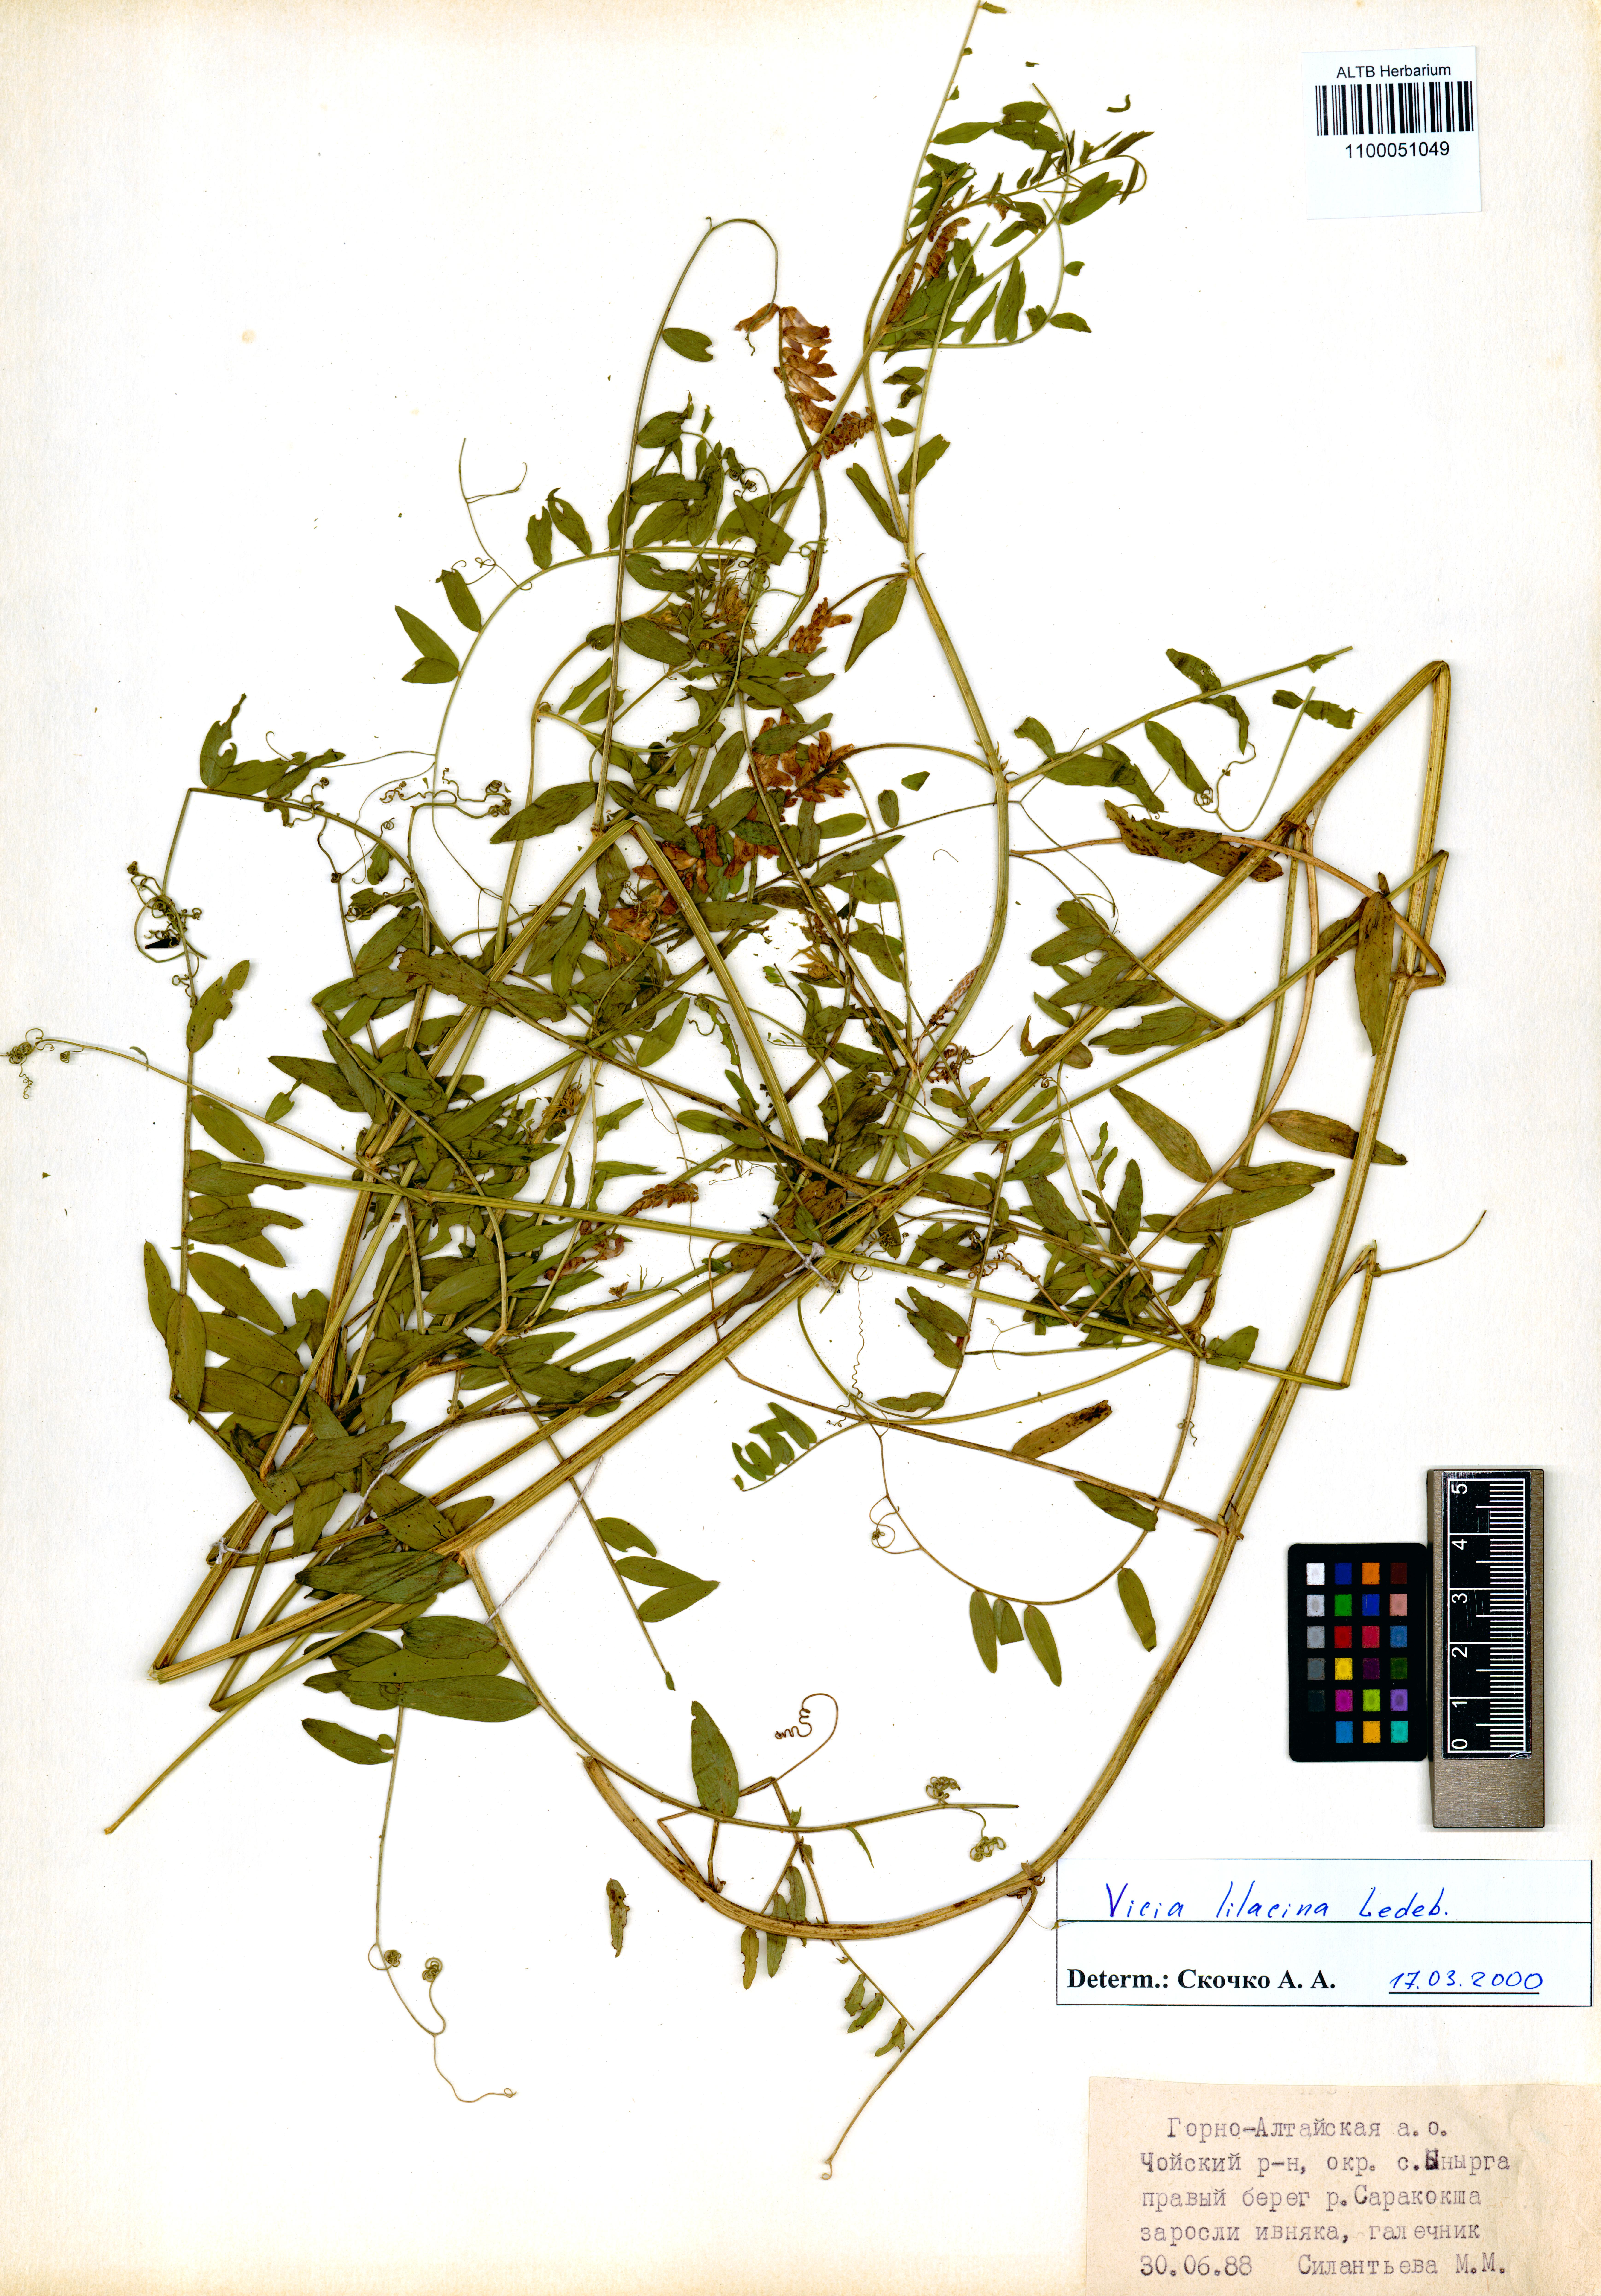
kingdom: Plantae
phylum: Tracheophyta
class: Magnoliopsida
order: Fabales
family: Fabaceae
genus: Vicia
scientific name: Vicia lilacina
